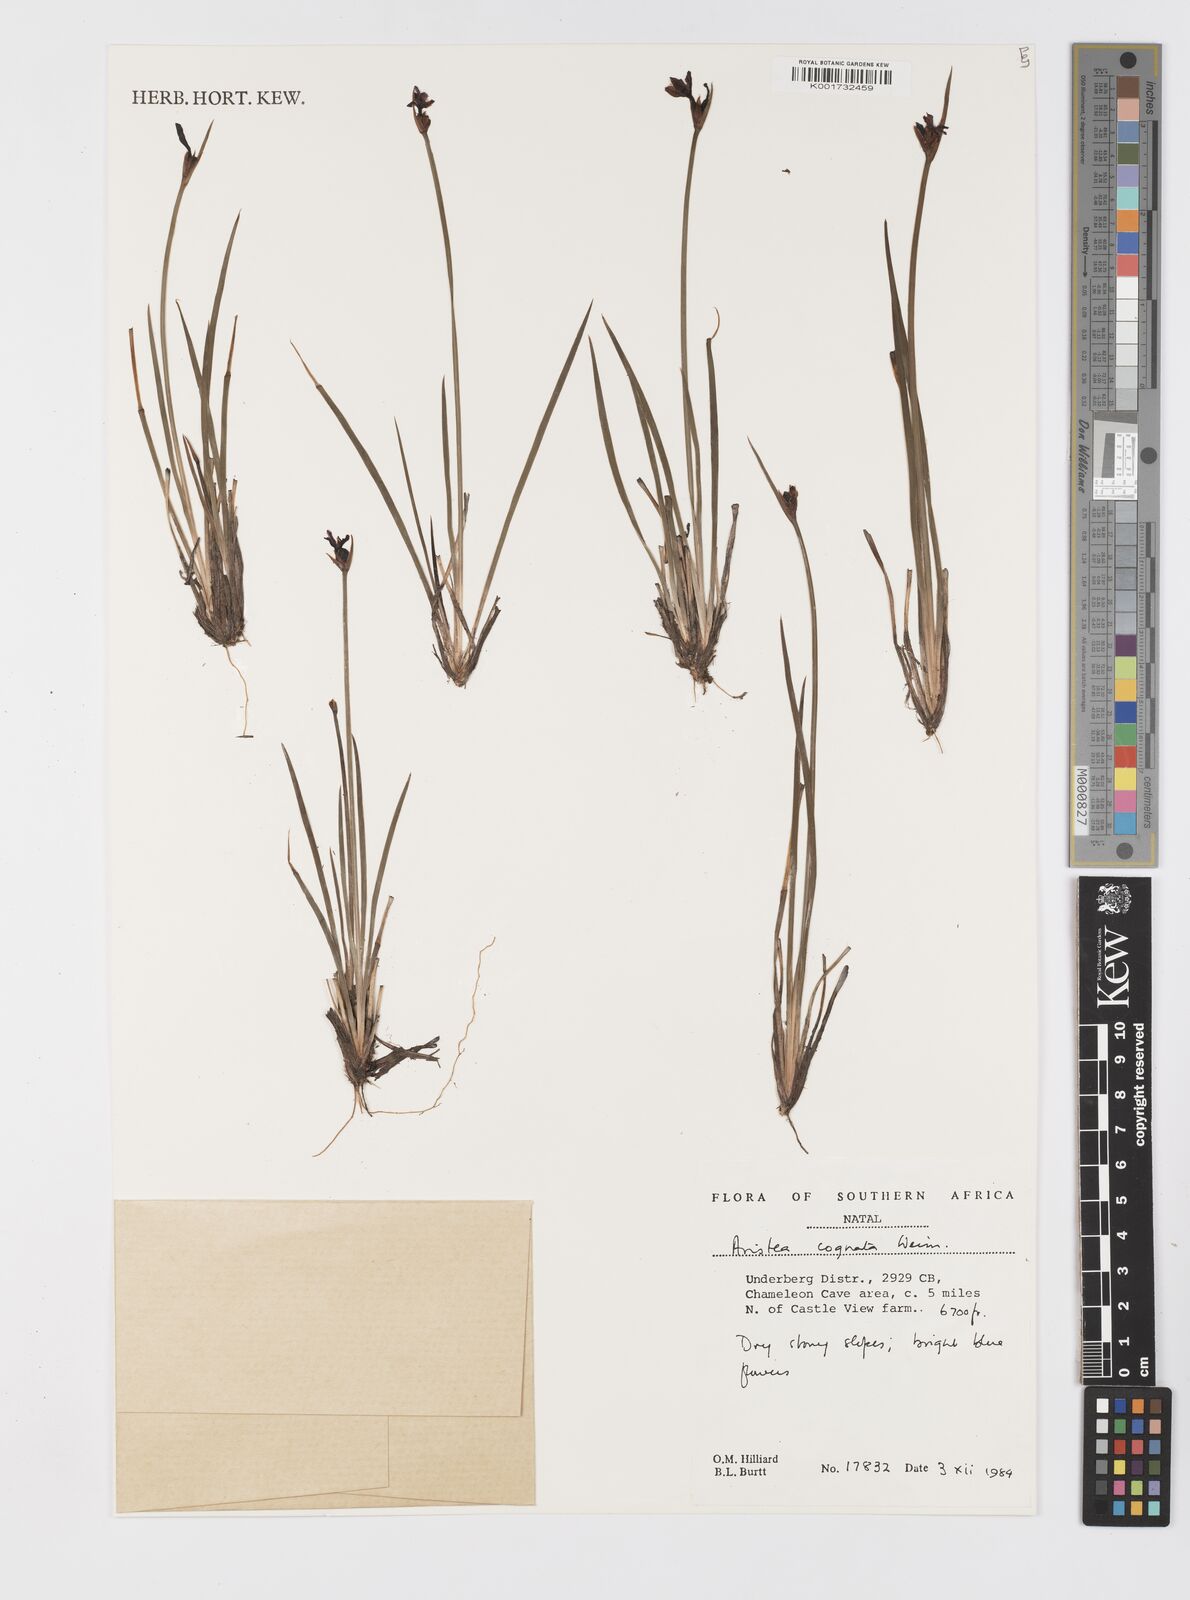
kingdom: Plantae
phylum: Tracheophyta
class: Liliopsida
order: Asparagales
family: Iridaceae
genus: Aristea
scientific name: Aristea abyssinica
